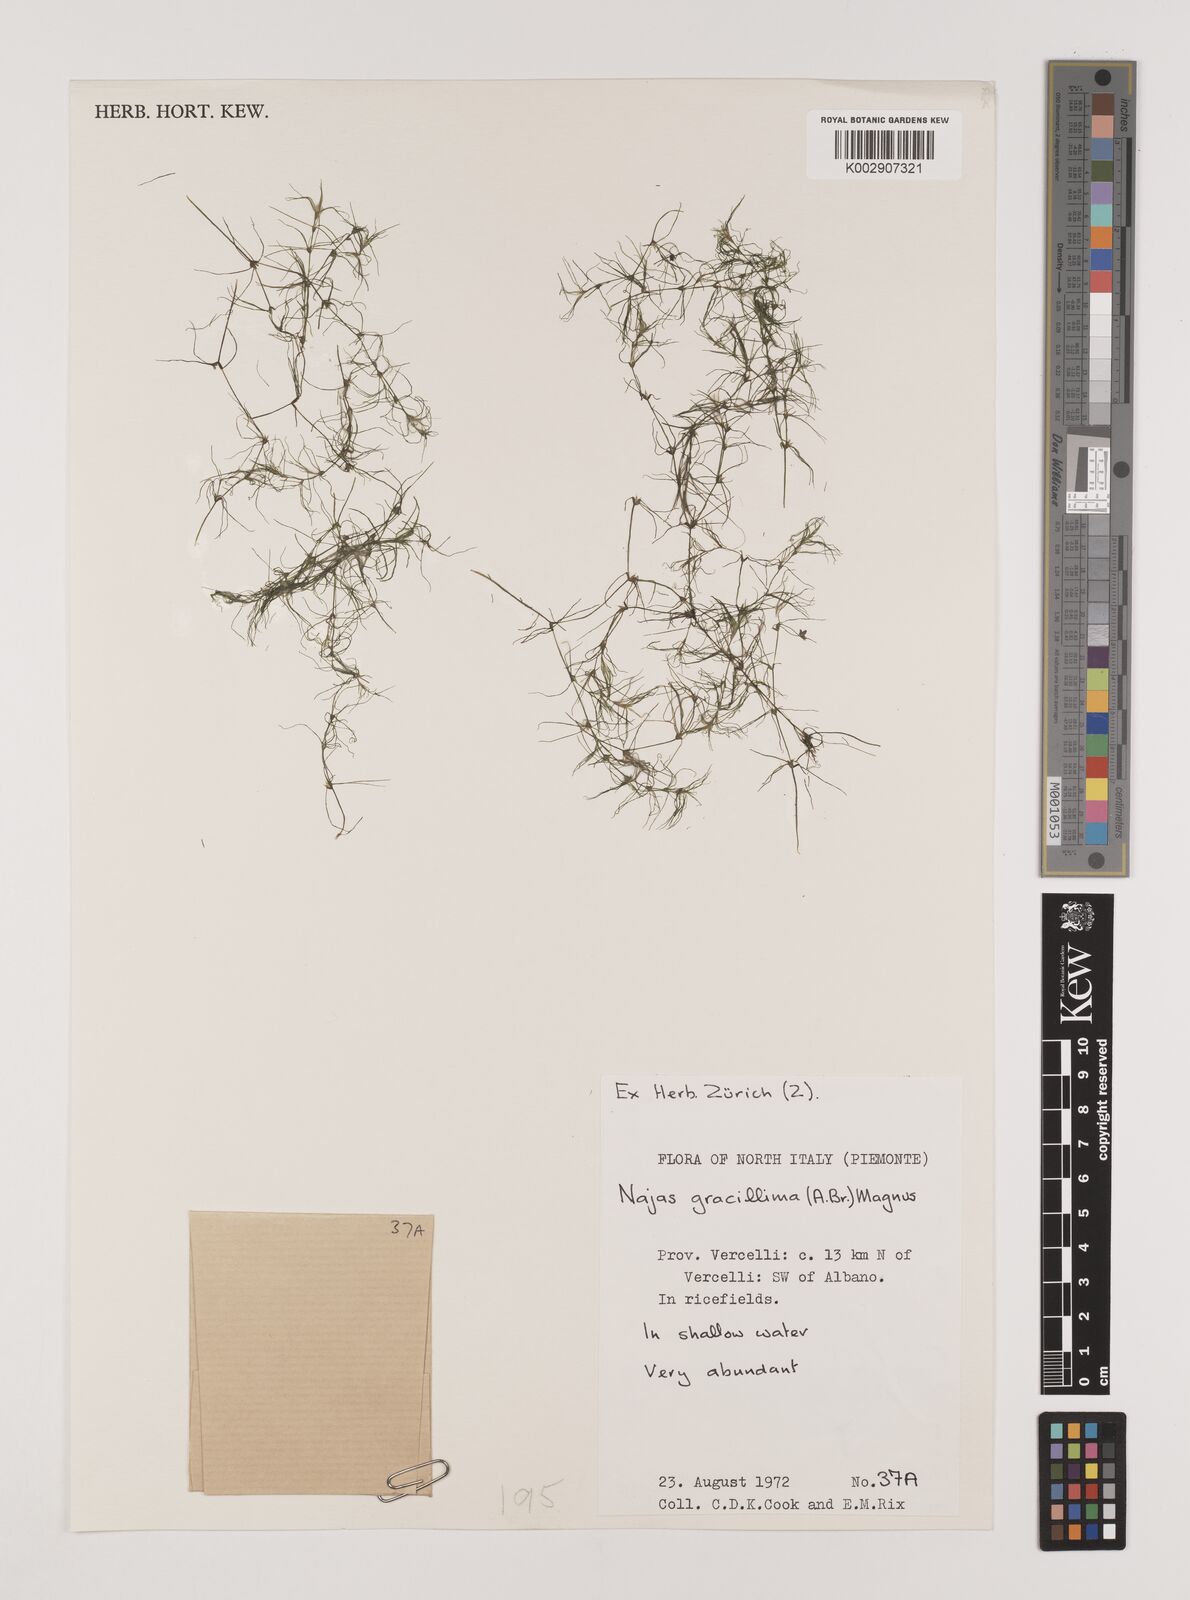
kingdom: Plantae
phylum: Tracheophyta
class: Liliopsida
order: Alismatales
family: Hydrocharitaceae
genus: Najas
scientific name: Najas gracillima
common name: Slender water-nymph
